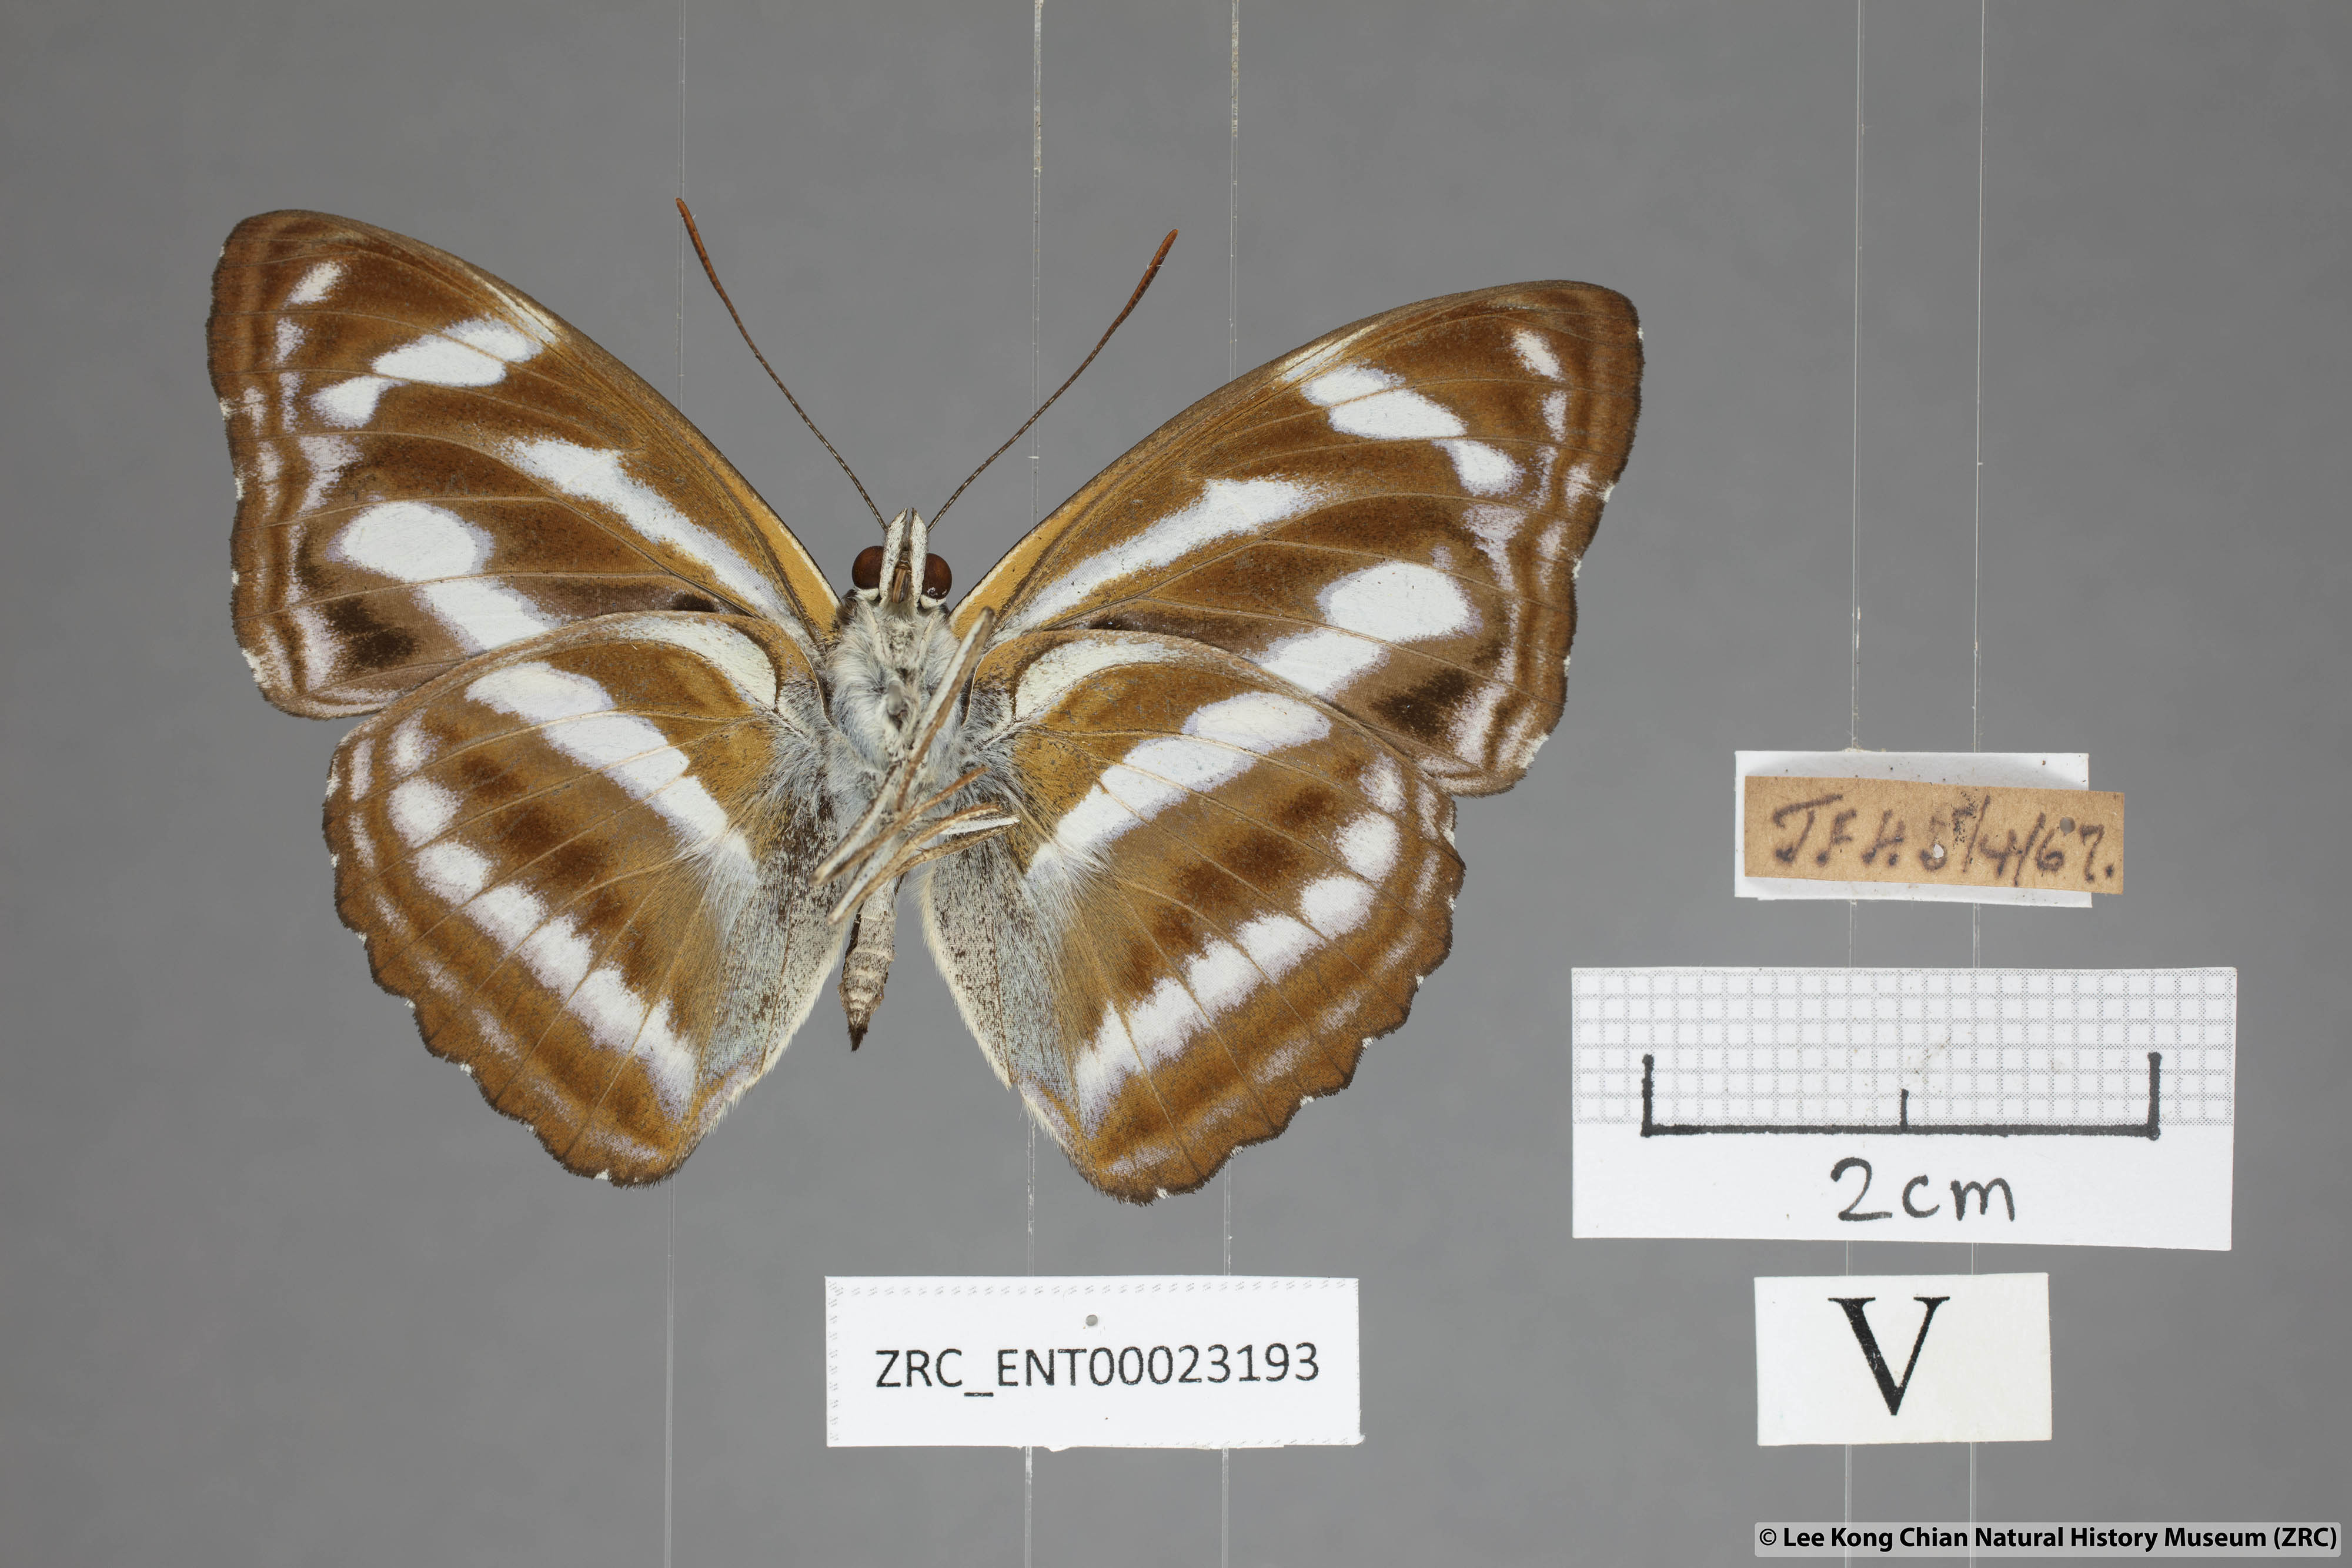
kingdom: Animalia
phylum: Arthropoda
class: Insecta
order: Lepidoptera
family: Nymphalidae
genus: Pantoporia
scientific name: Pantoporia cama
